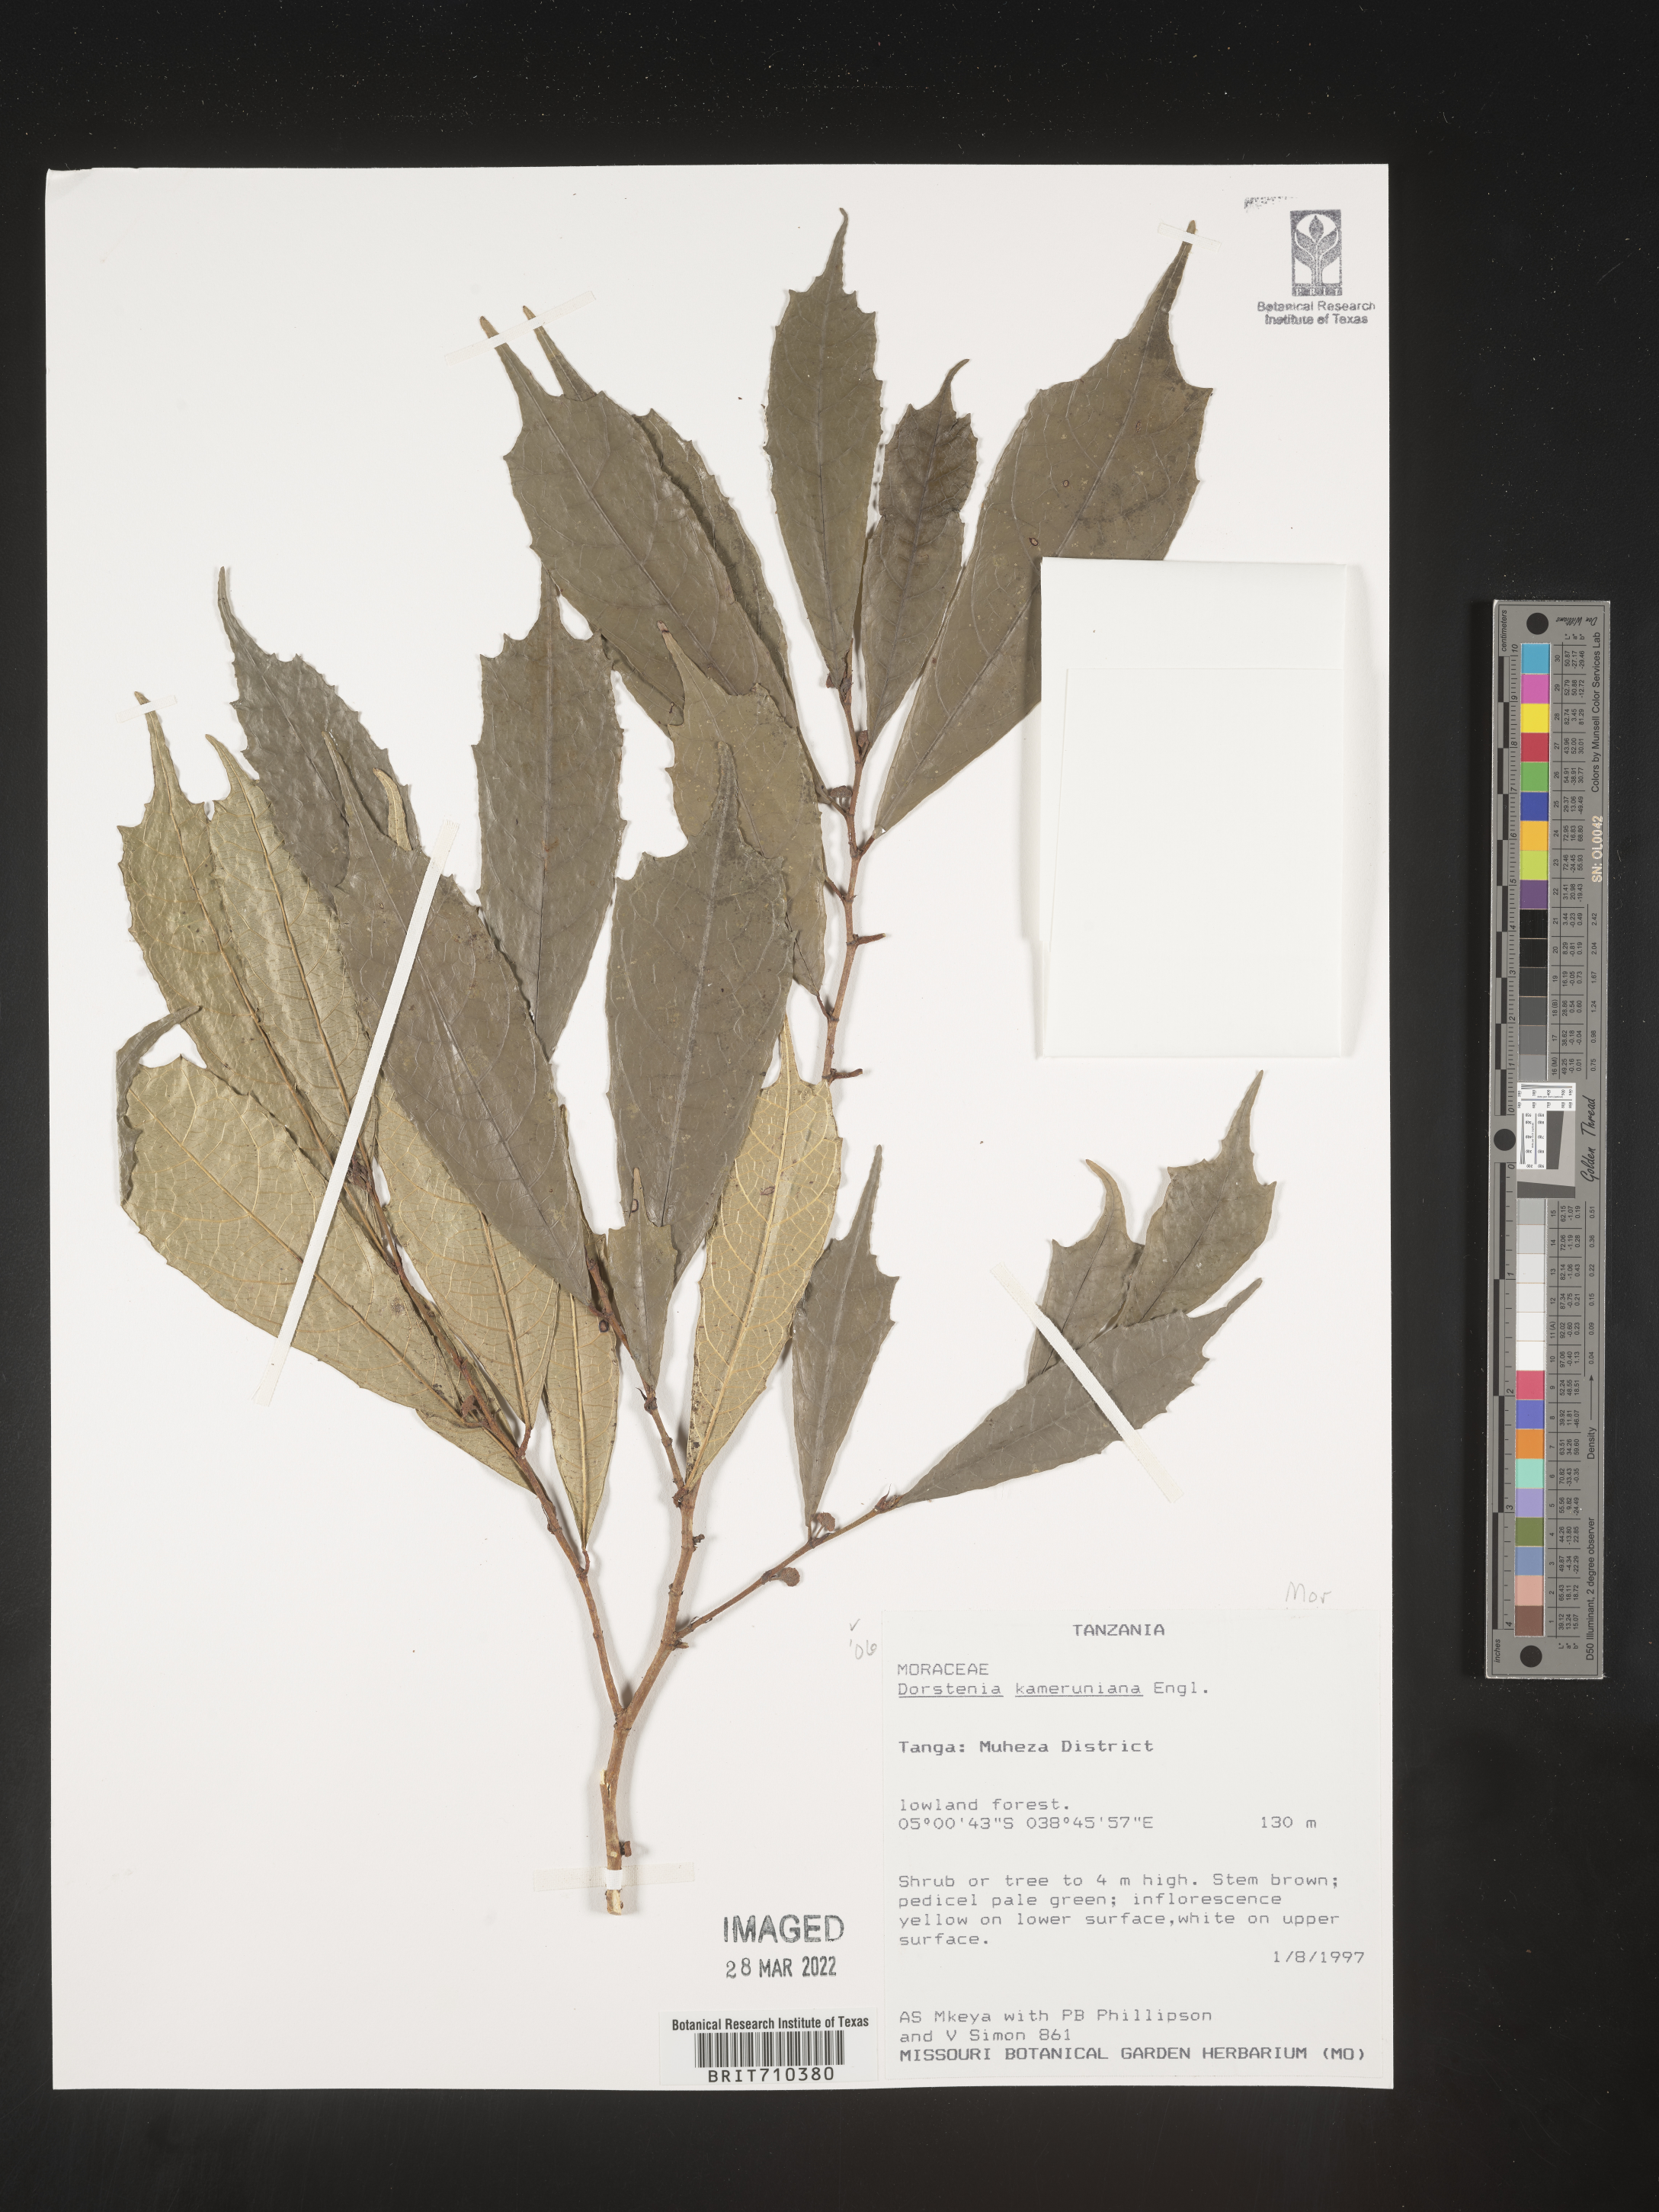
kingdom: Plantae
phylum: Tracheophyta
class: Magnoliopsida
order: Rosales
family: Moraceae
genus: Dorstenia
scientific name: Dorstenia
